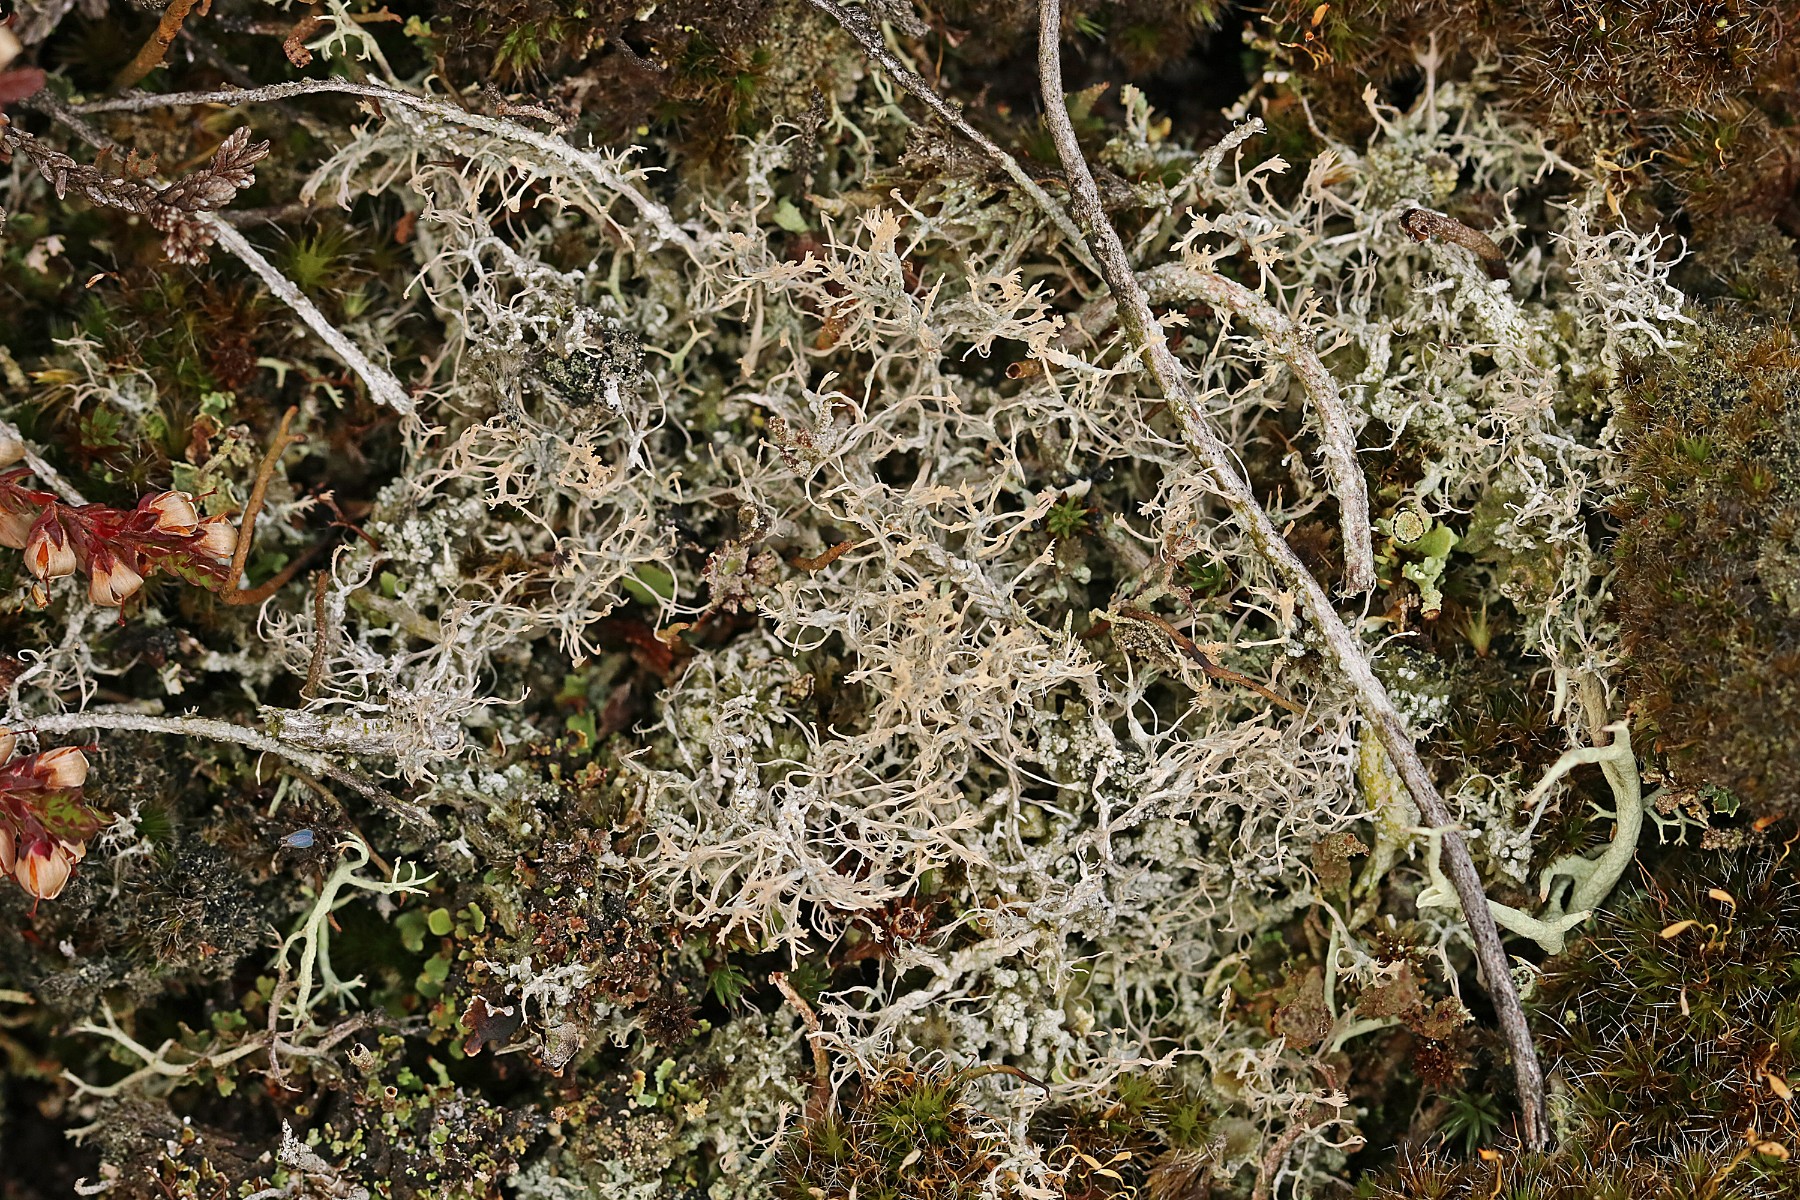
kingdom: Fungi
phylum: Ascomycota
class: Lecanoromycetes
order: Pertusariales
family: Ochrolechiaceae
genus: Ochrolechia
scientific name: Ochrolechia frigida
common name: fjeld-blegskivelav
